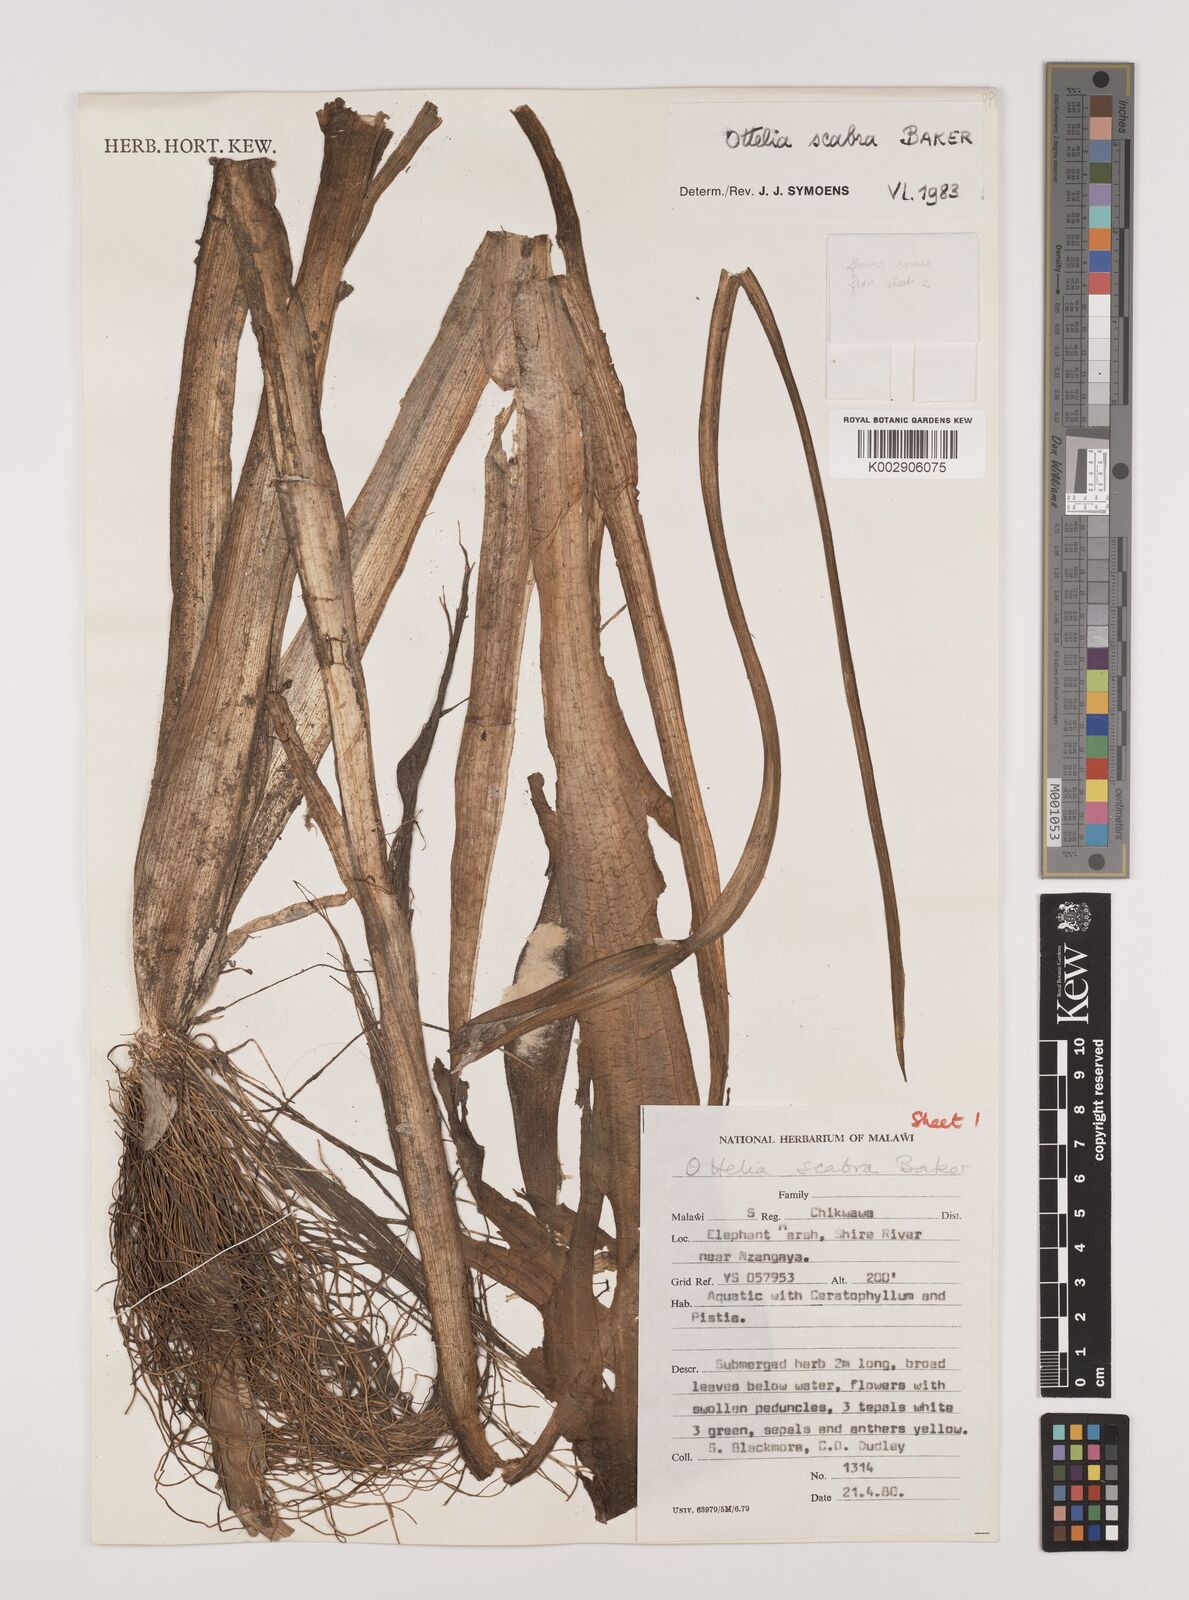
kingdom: Plantae
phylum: Tracheophyta
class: Liliopsida
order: Alismatales
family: Hydrocharitaceae
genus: Ottelia
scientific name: Ottelia scabra
